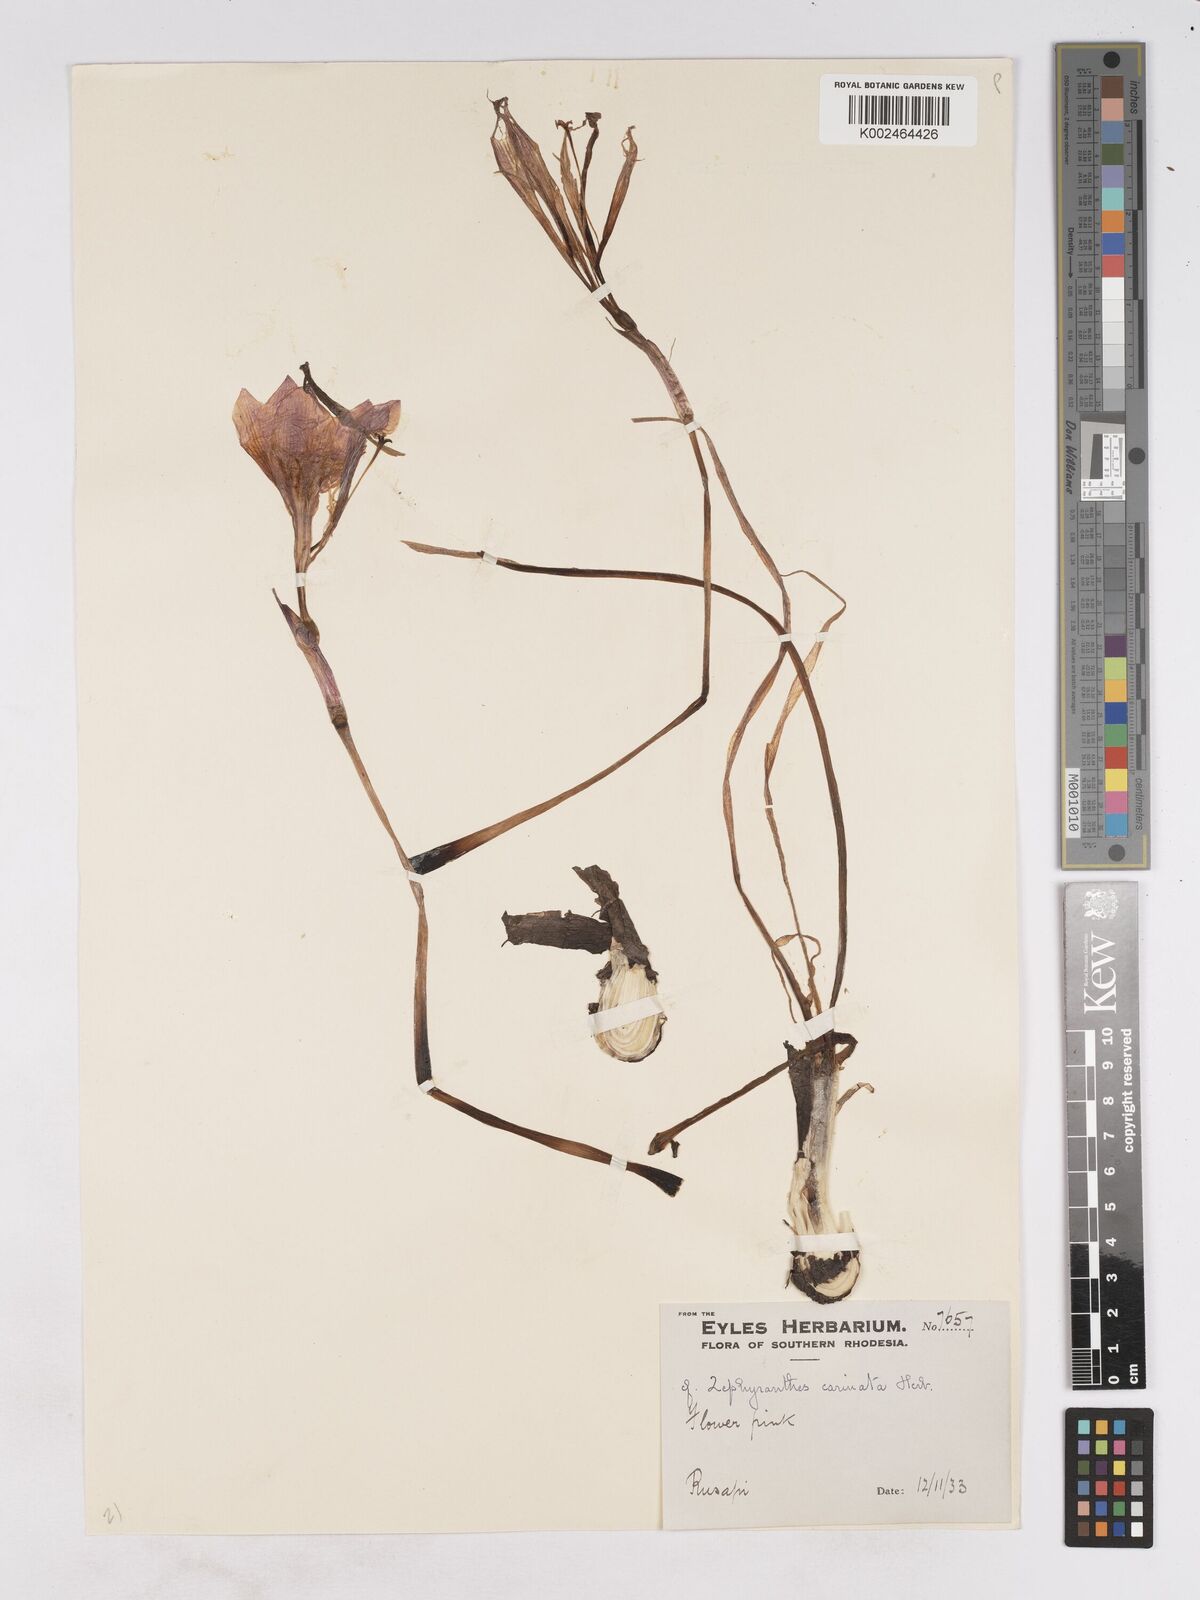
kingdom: Plantae
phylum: Tracheophyta
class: Liliopsida
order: Asparagales
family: Amaryllidaceae
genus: Zephyranthes
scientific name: Zephyranthes minuta
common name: Pink rain lily
